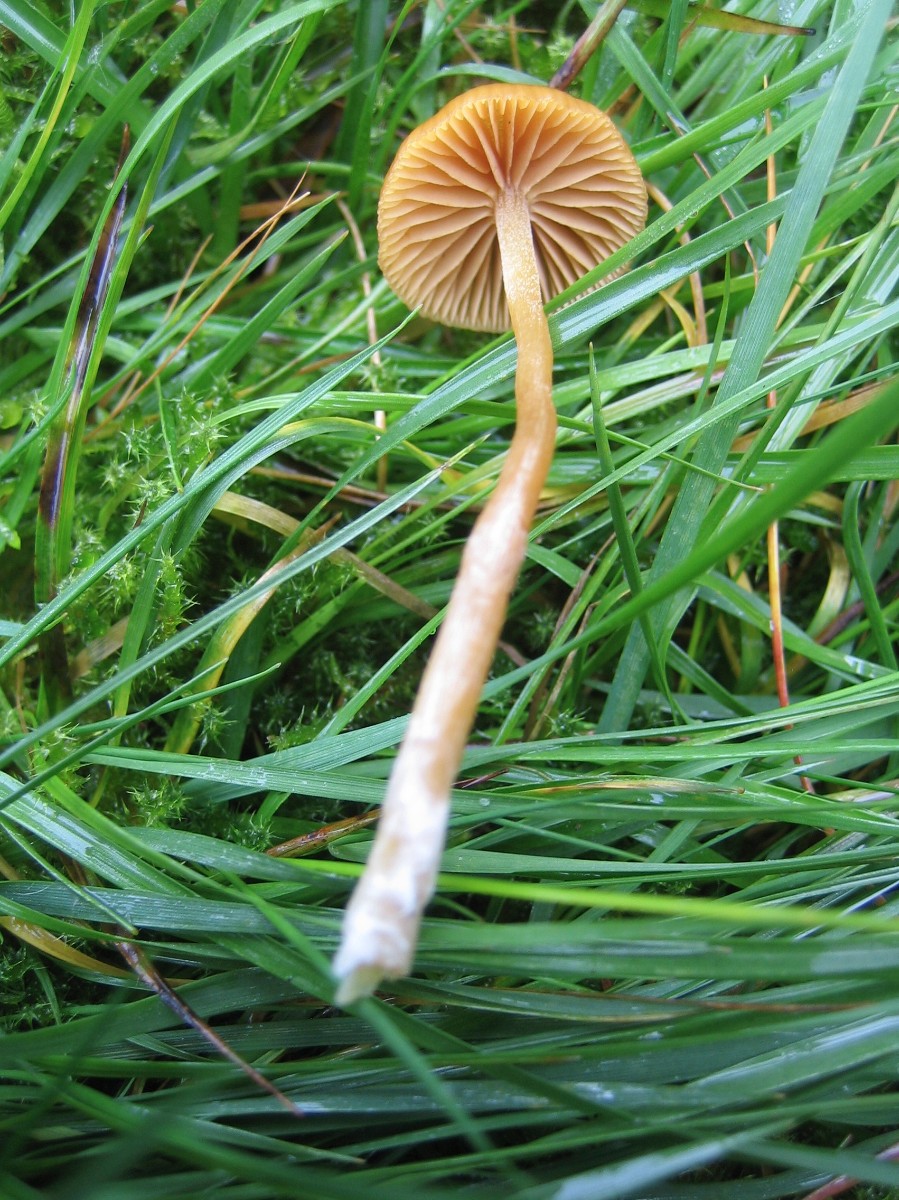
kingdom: Fungi
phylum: Basidiomycota
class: Agaricomycetes
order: Agaricales
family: Hymenogastraceae
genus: Galerina
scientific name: Galerina
